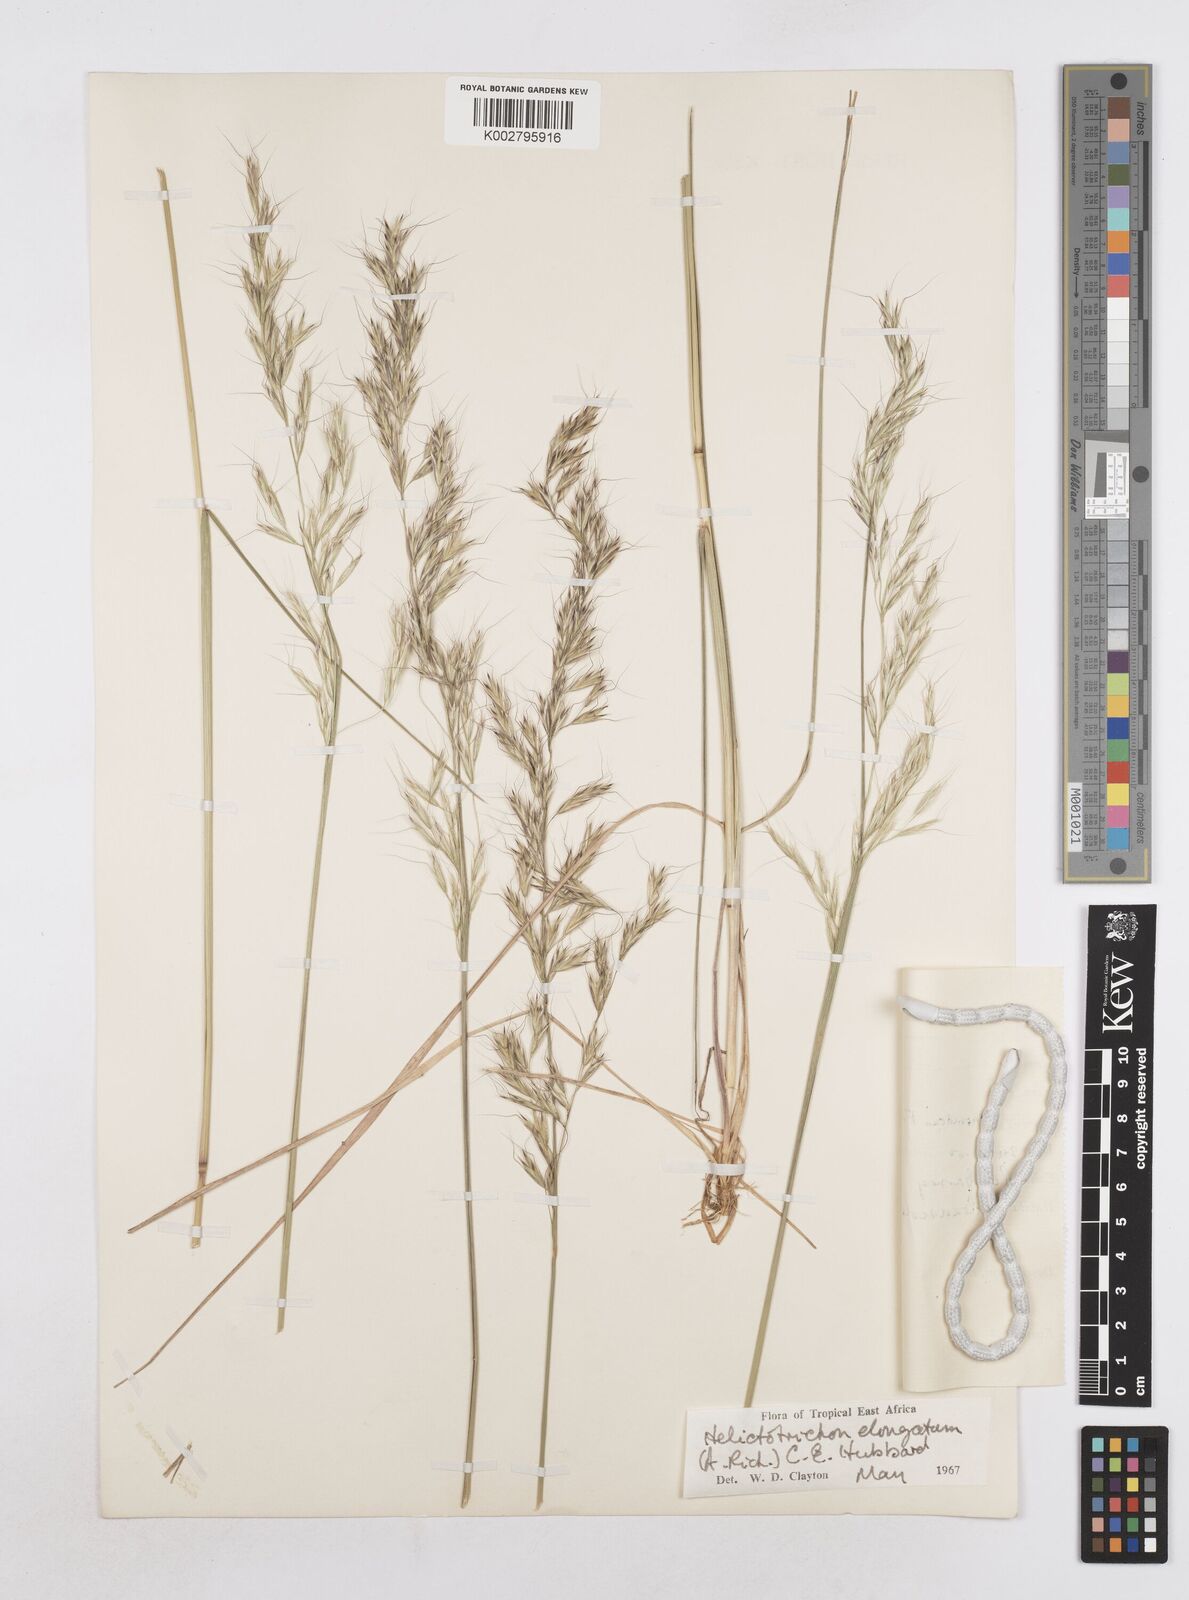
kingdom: Plantae
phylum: Tracheophyta
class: Liliopsida
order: Poales
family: Poaceae
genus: Trisetopsis
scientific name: Trisetopsis elongata
